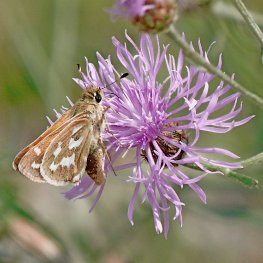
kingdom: Animalia
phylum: Arthropoda
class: Insecta
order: Lepidoptera
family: Hesperiidae
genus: Hesperia
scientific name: Hesperia comma
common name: Western Branded Skipper
